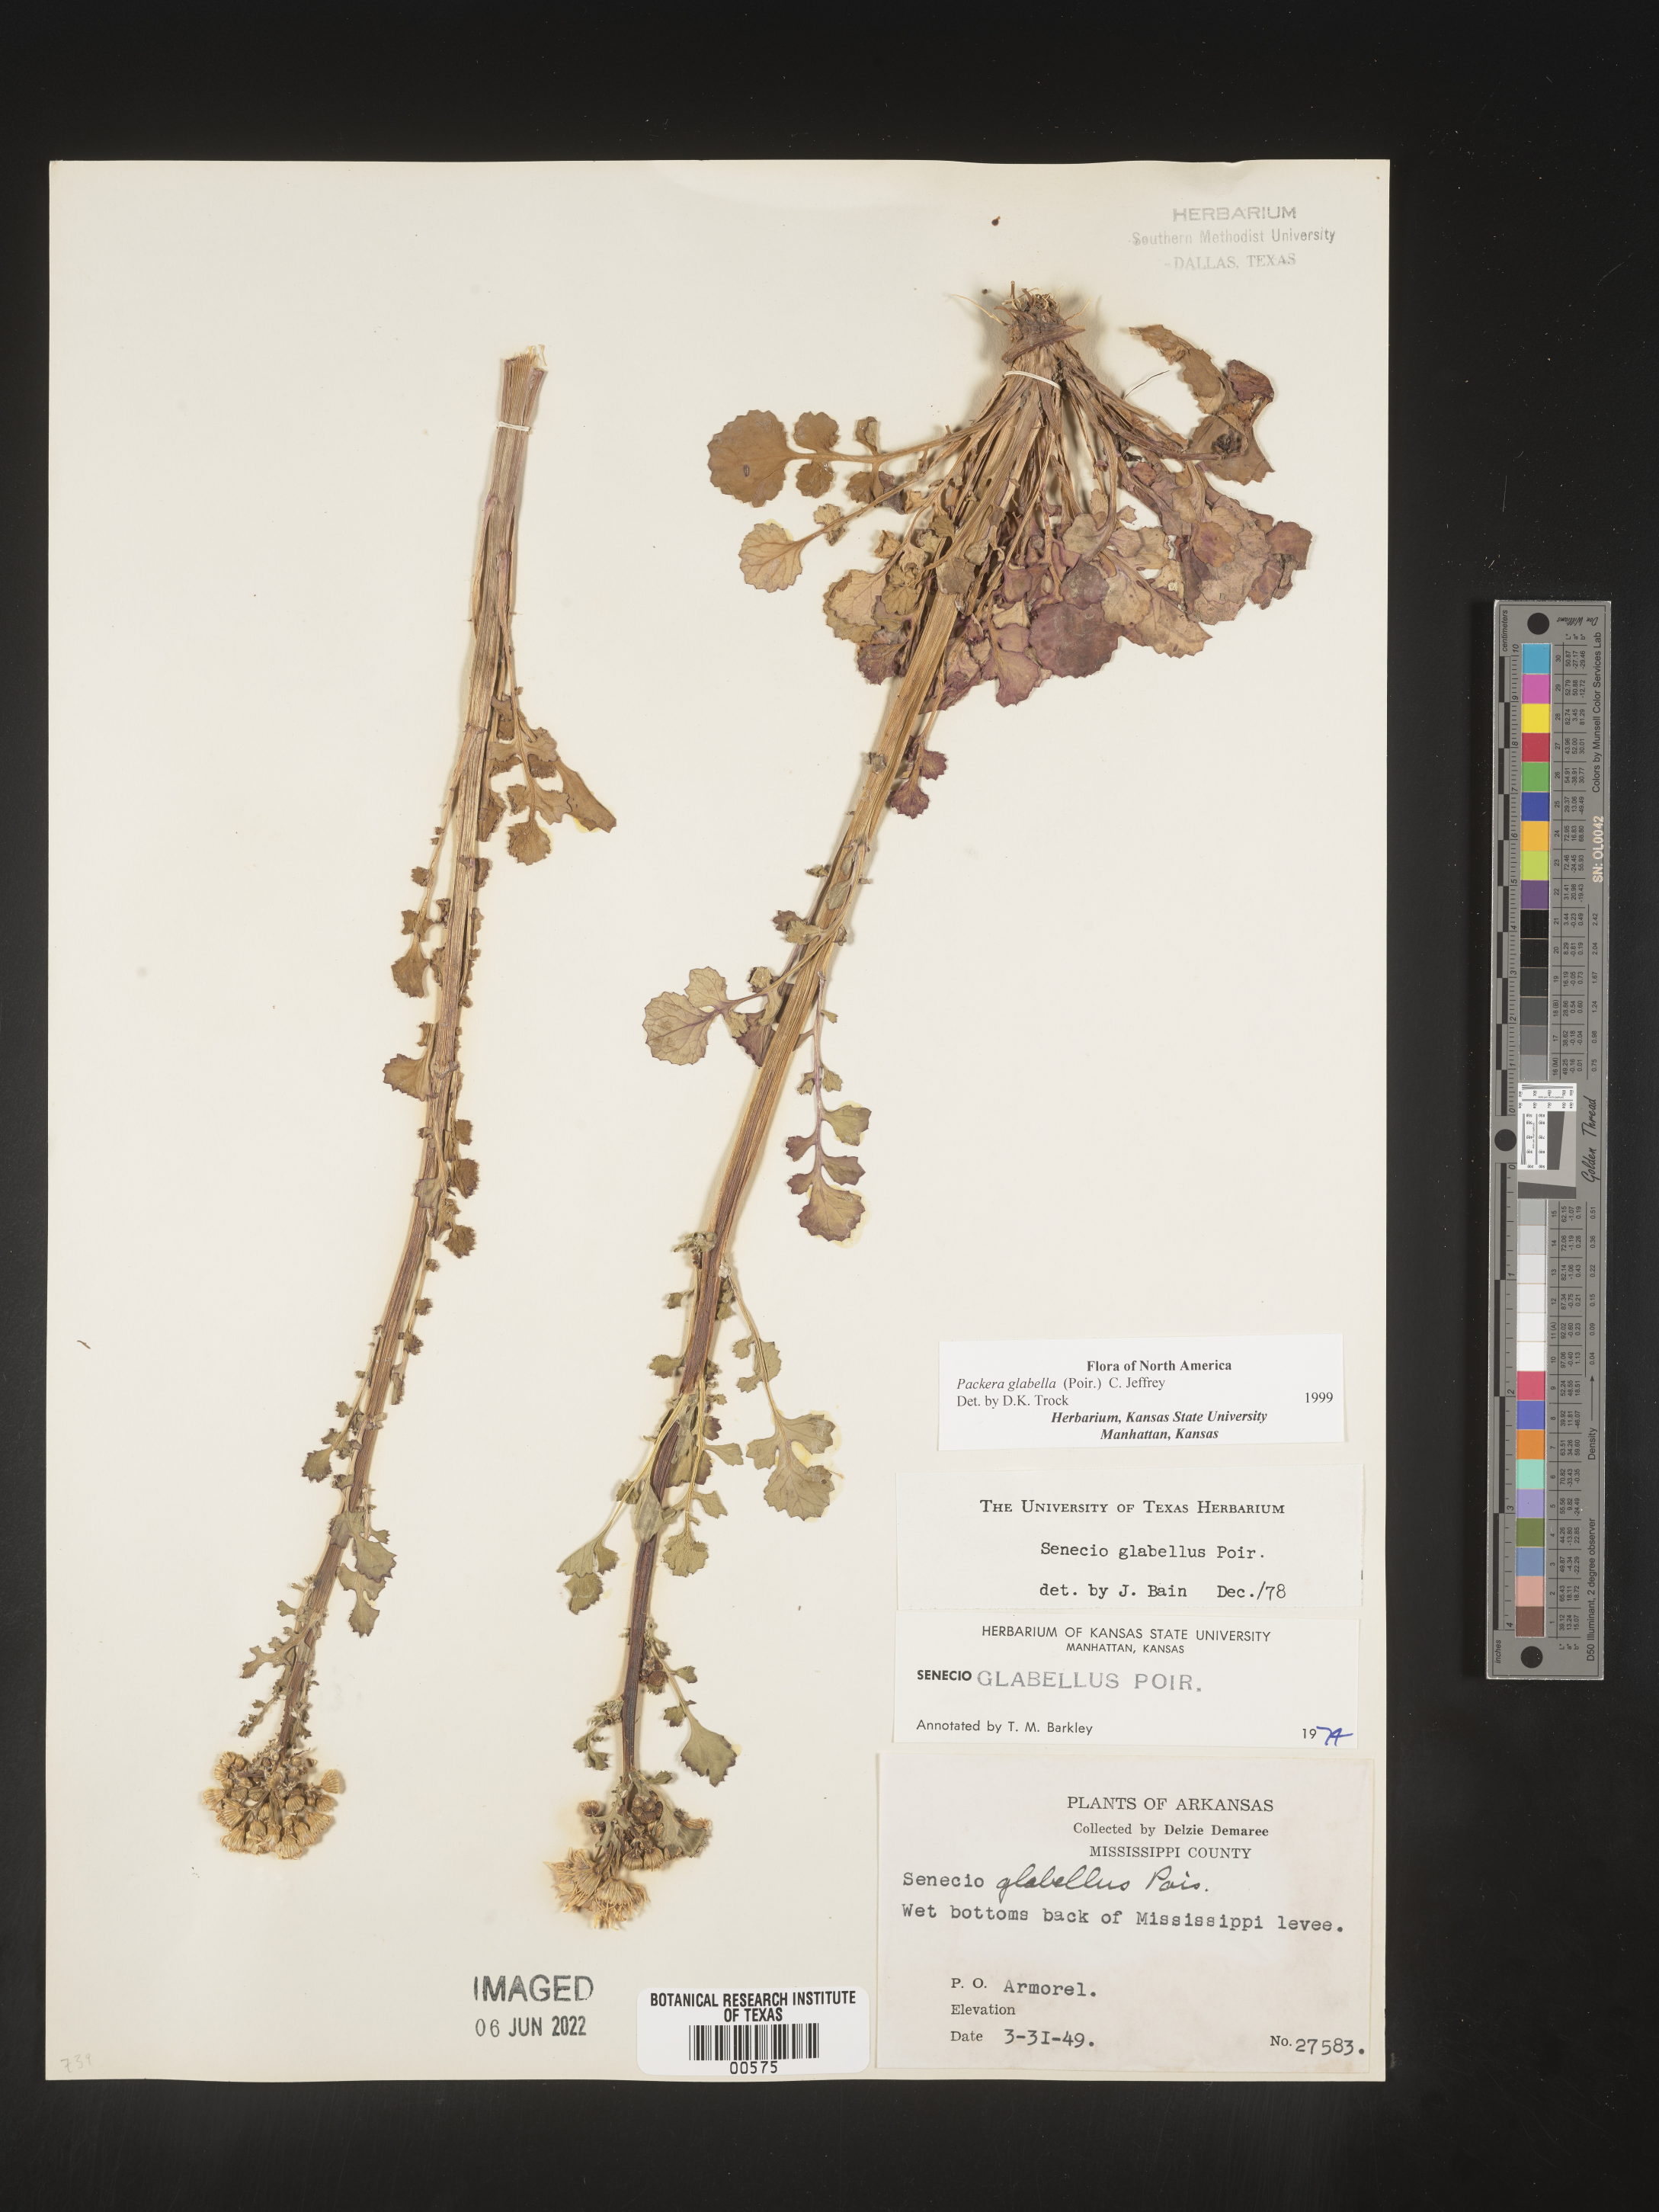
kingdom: Plantae
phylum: Tracheophyta
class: Magnoliopsida
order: Asterales
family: Asteraceae
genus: Packera
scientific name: Packera glabella
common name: Butterweed
